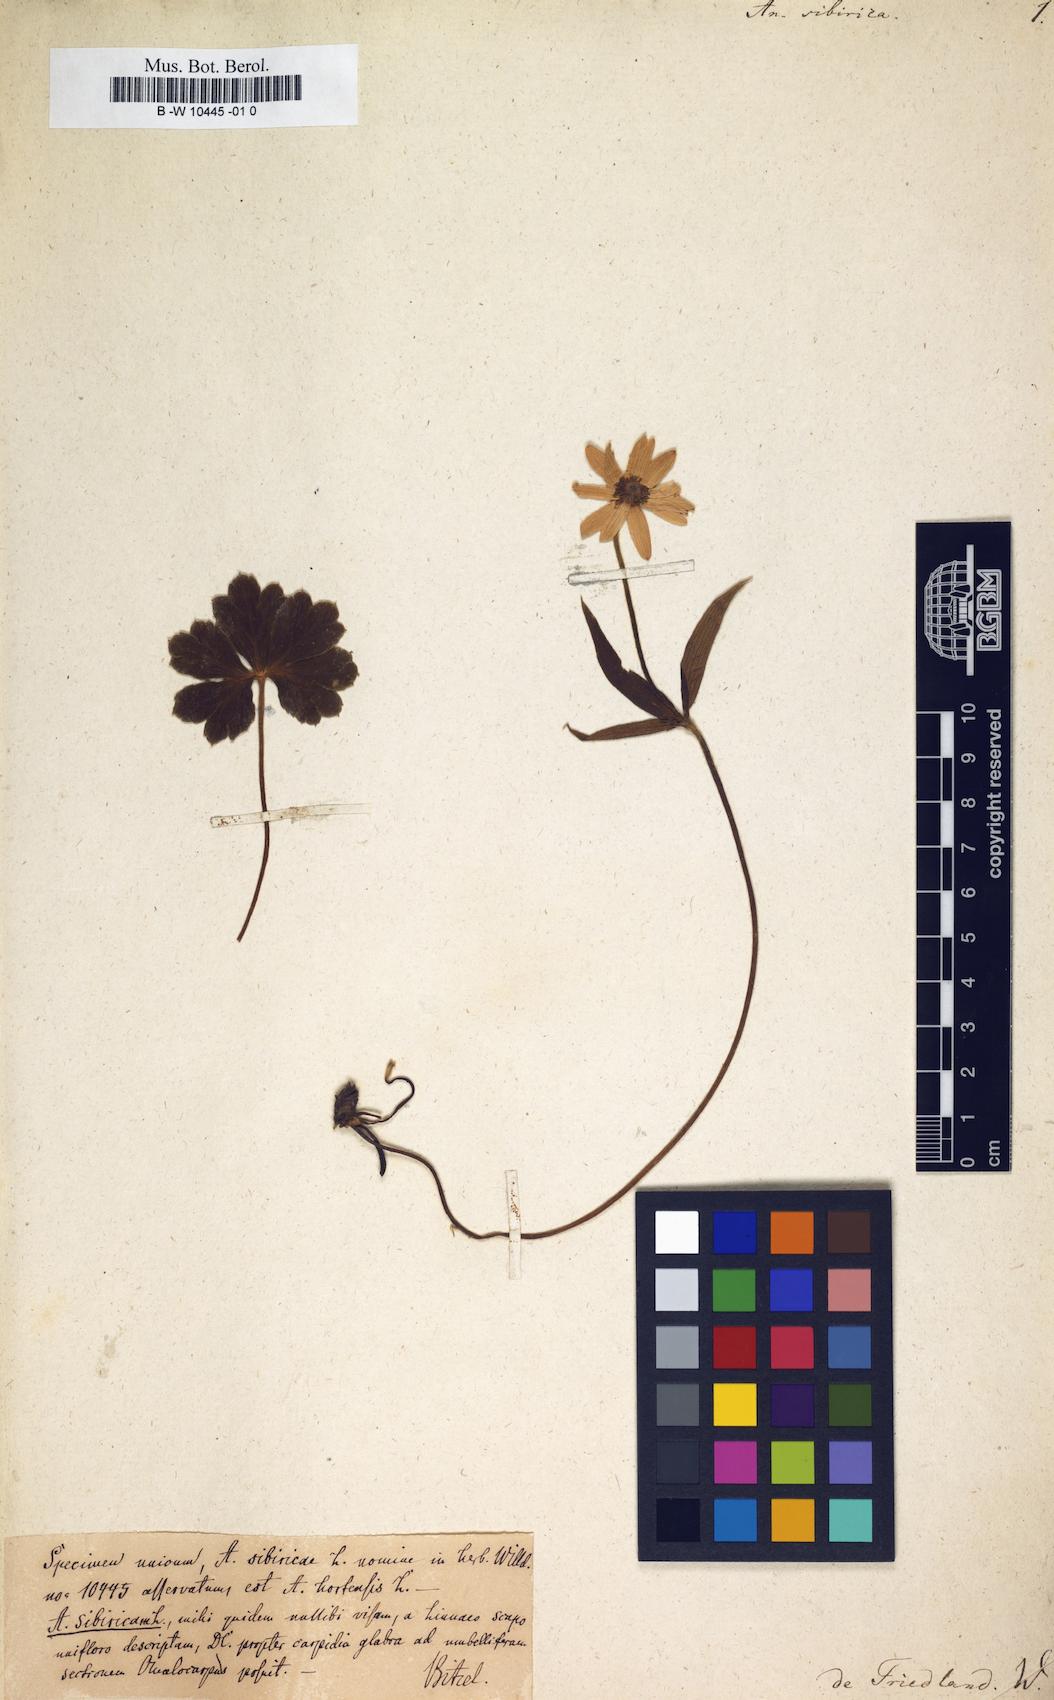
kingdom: Plantae
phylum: Tracheophyta
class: Magnoliopsida
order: Ranunculales
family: Ranunculaceae
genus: Anemonastrum
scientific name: Anemonastrum narcissiflorum
